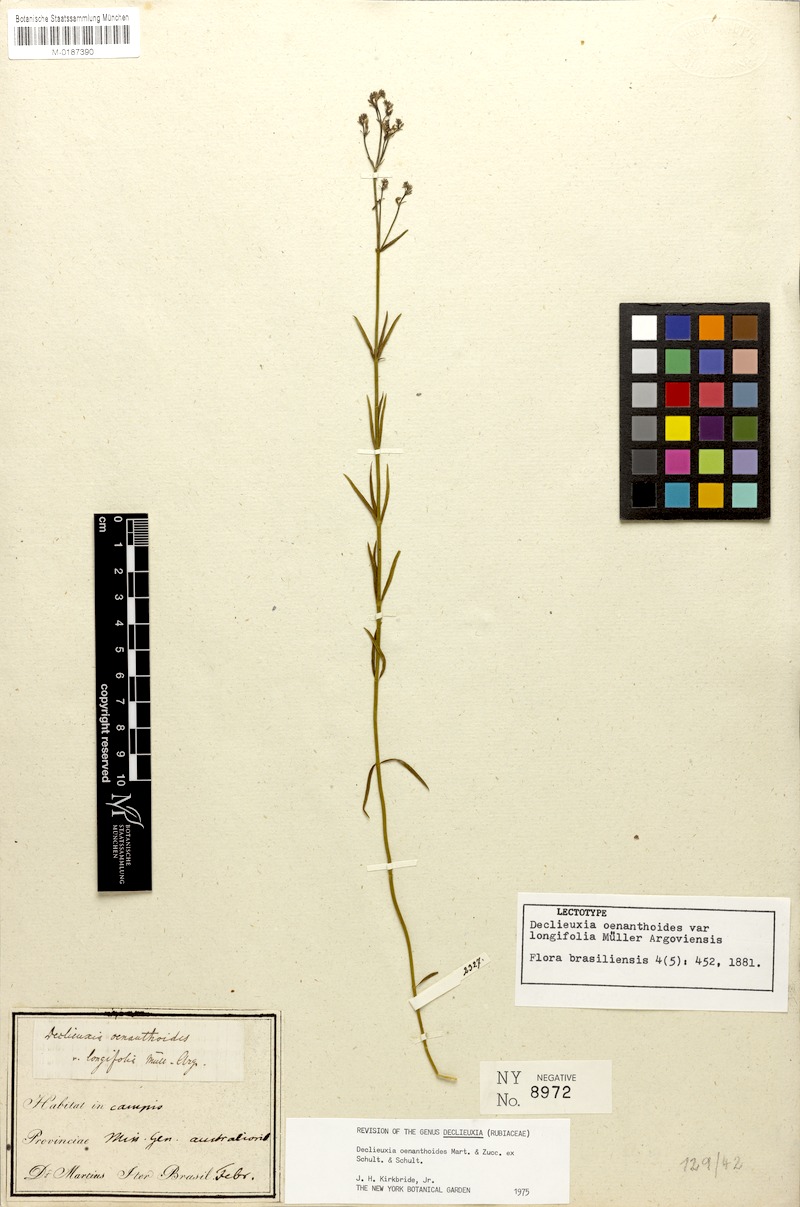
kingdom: Plantae
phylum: Tracheophyta
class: Magnoliopsida
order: Gentianales
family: Rubiaceae
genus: Declieuxia
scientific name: Declieuxia oenanthoides
